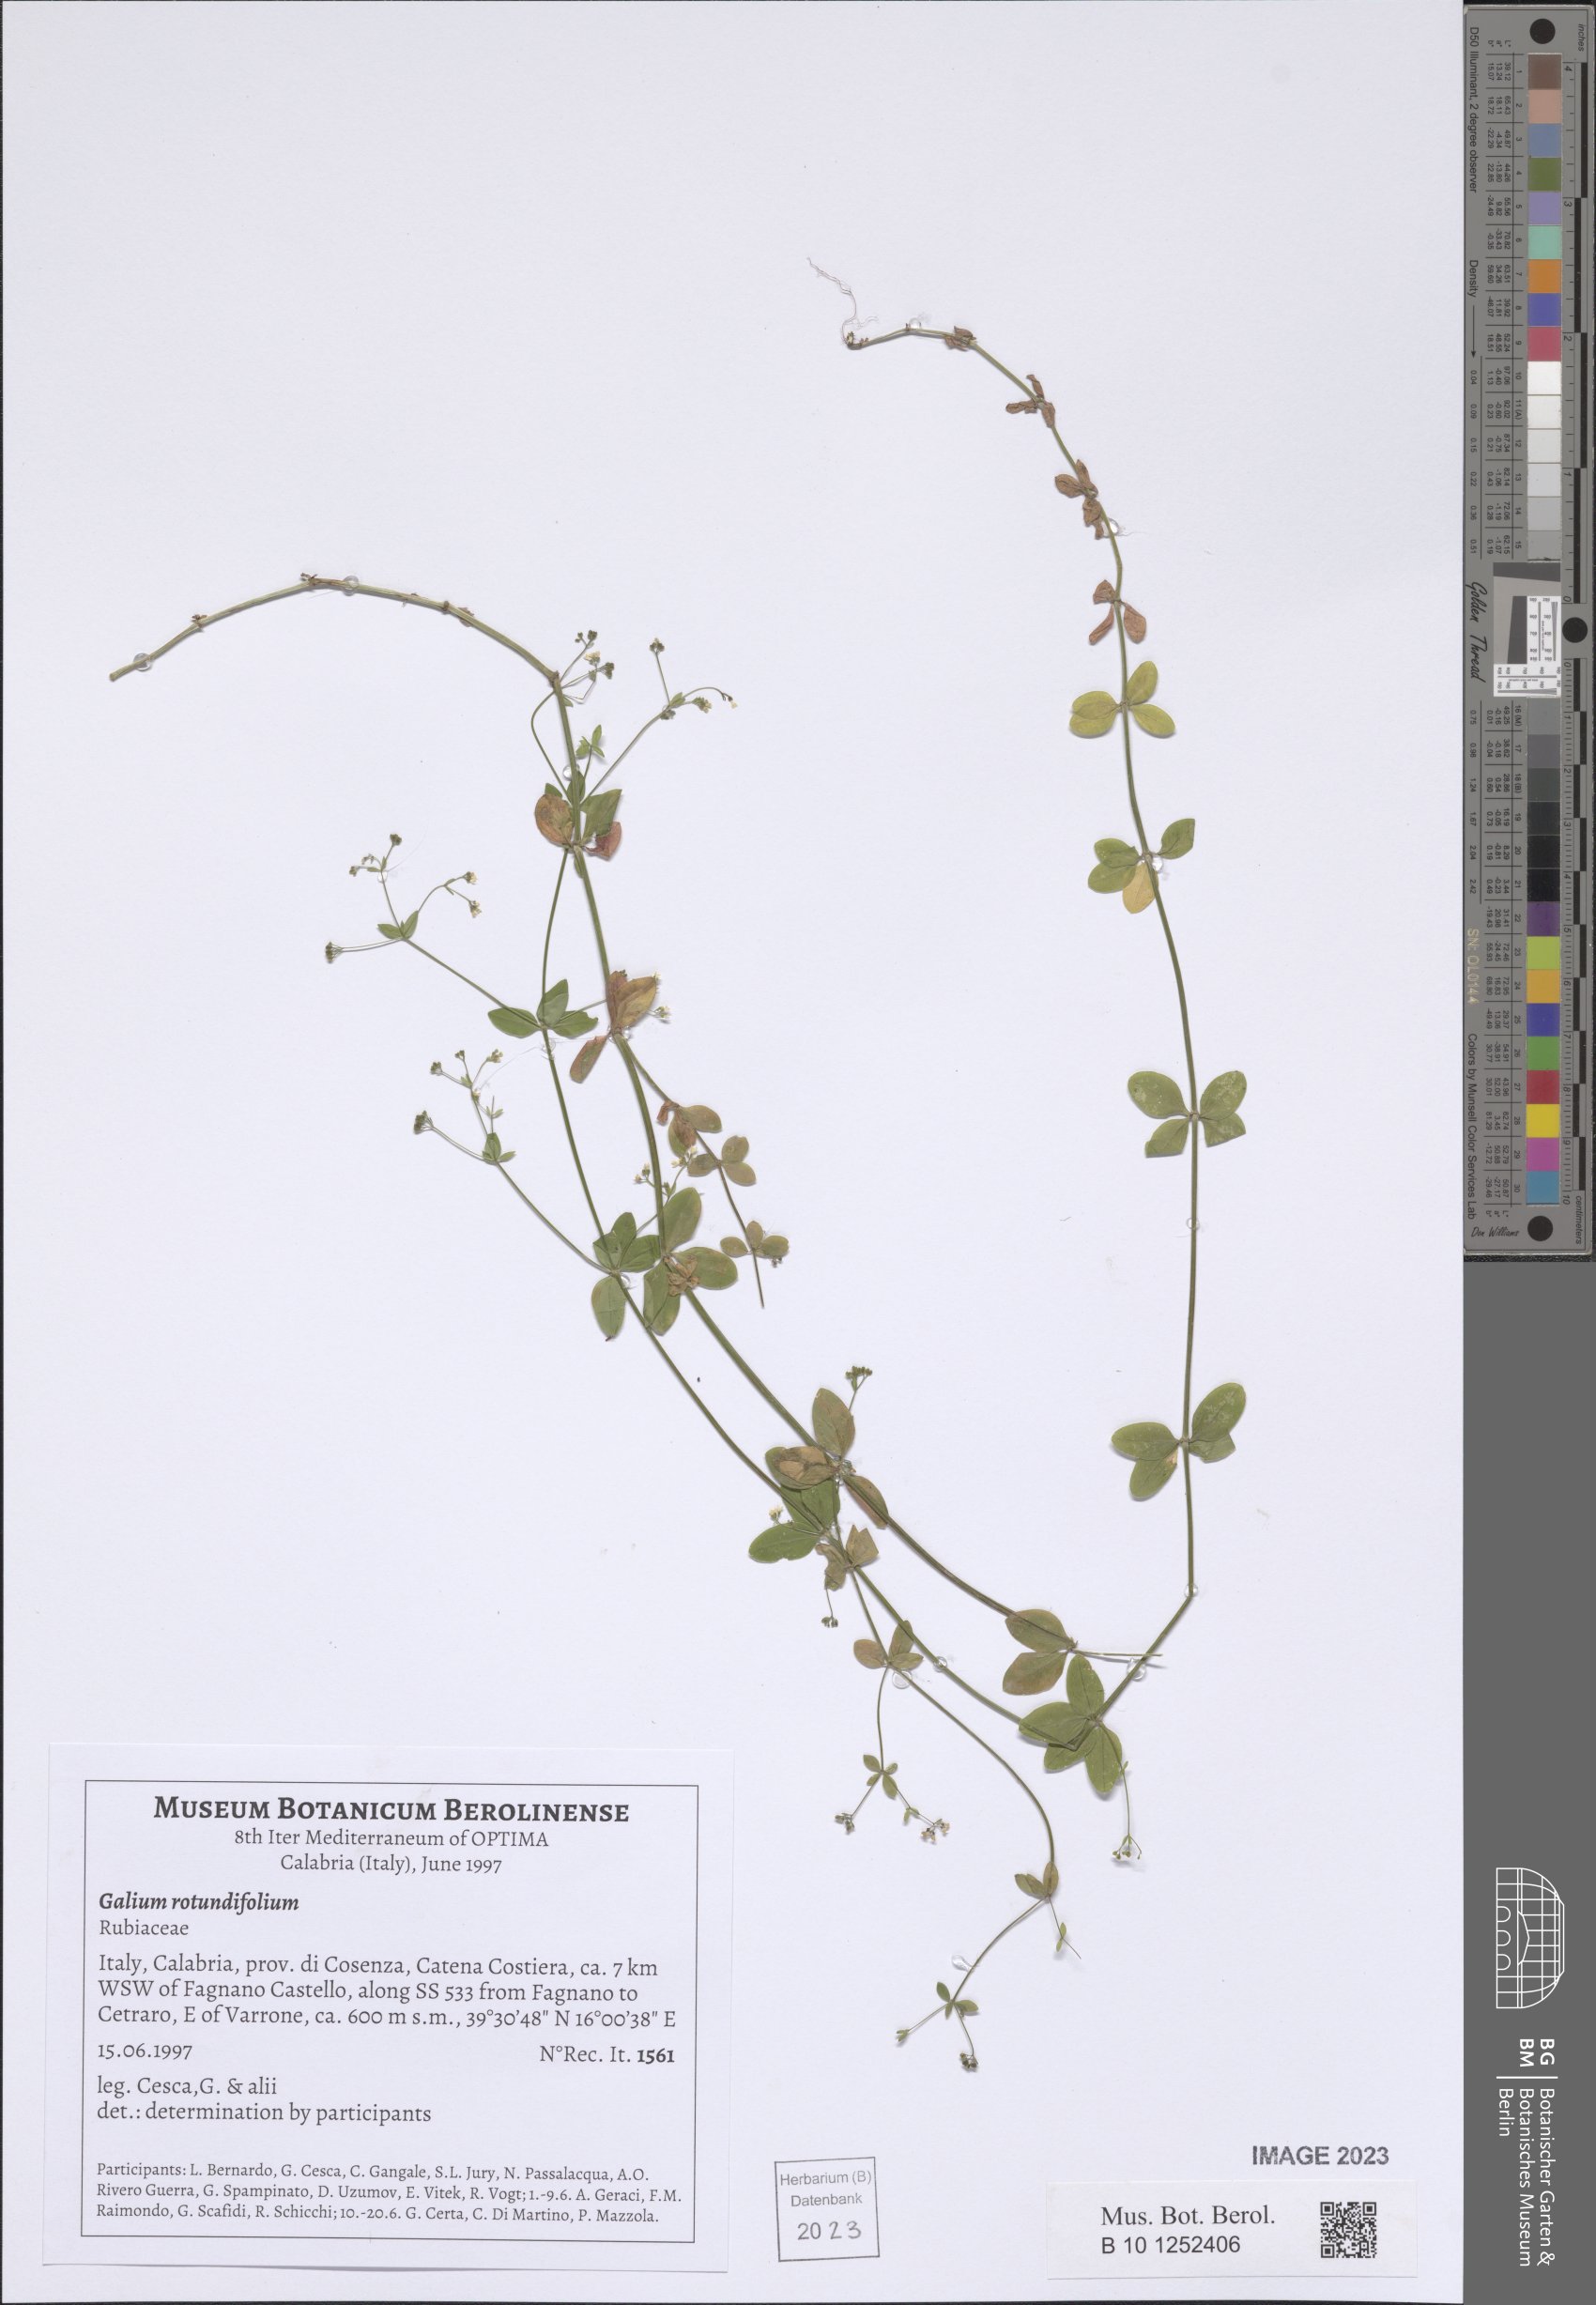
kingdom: Plantae
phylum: Tracheophyta
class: Magnoliopsida
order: Gentianales
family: Rubiaceae
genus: Galium
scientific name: Galium rotundifolium
